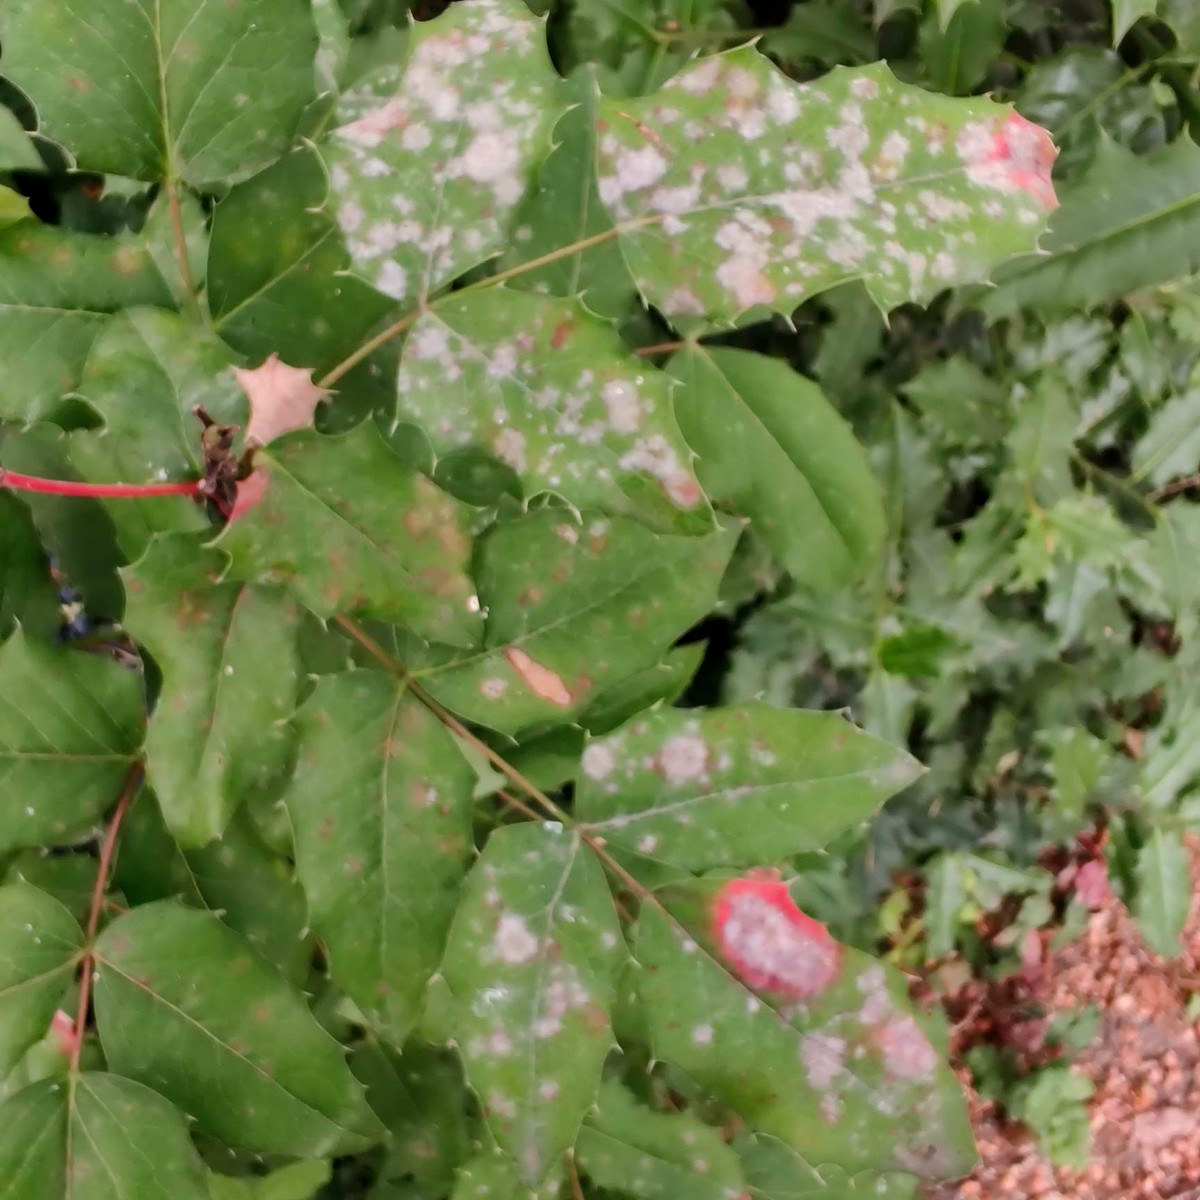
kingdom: Fungi
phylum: Ascomycota
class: Leotiomycetes
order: Helotiales
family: Erysiphaceae
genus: Erysiphe
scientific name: Erysiphe berberidis
